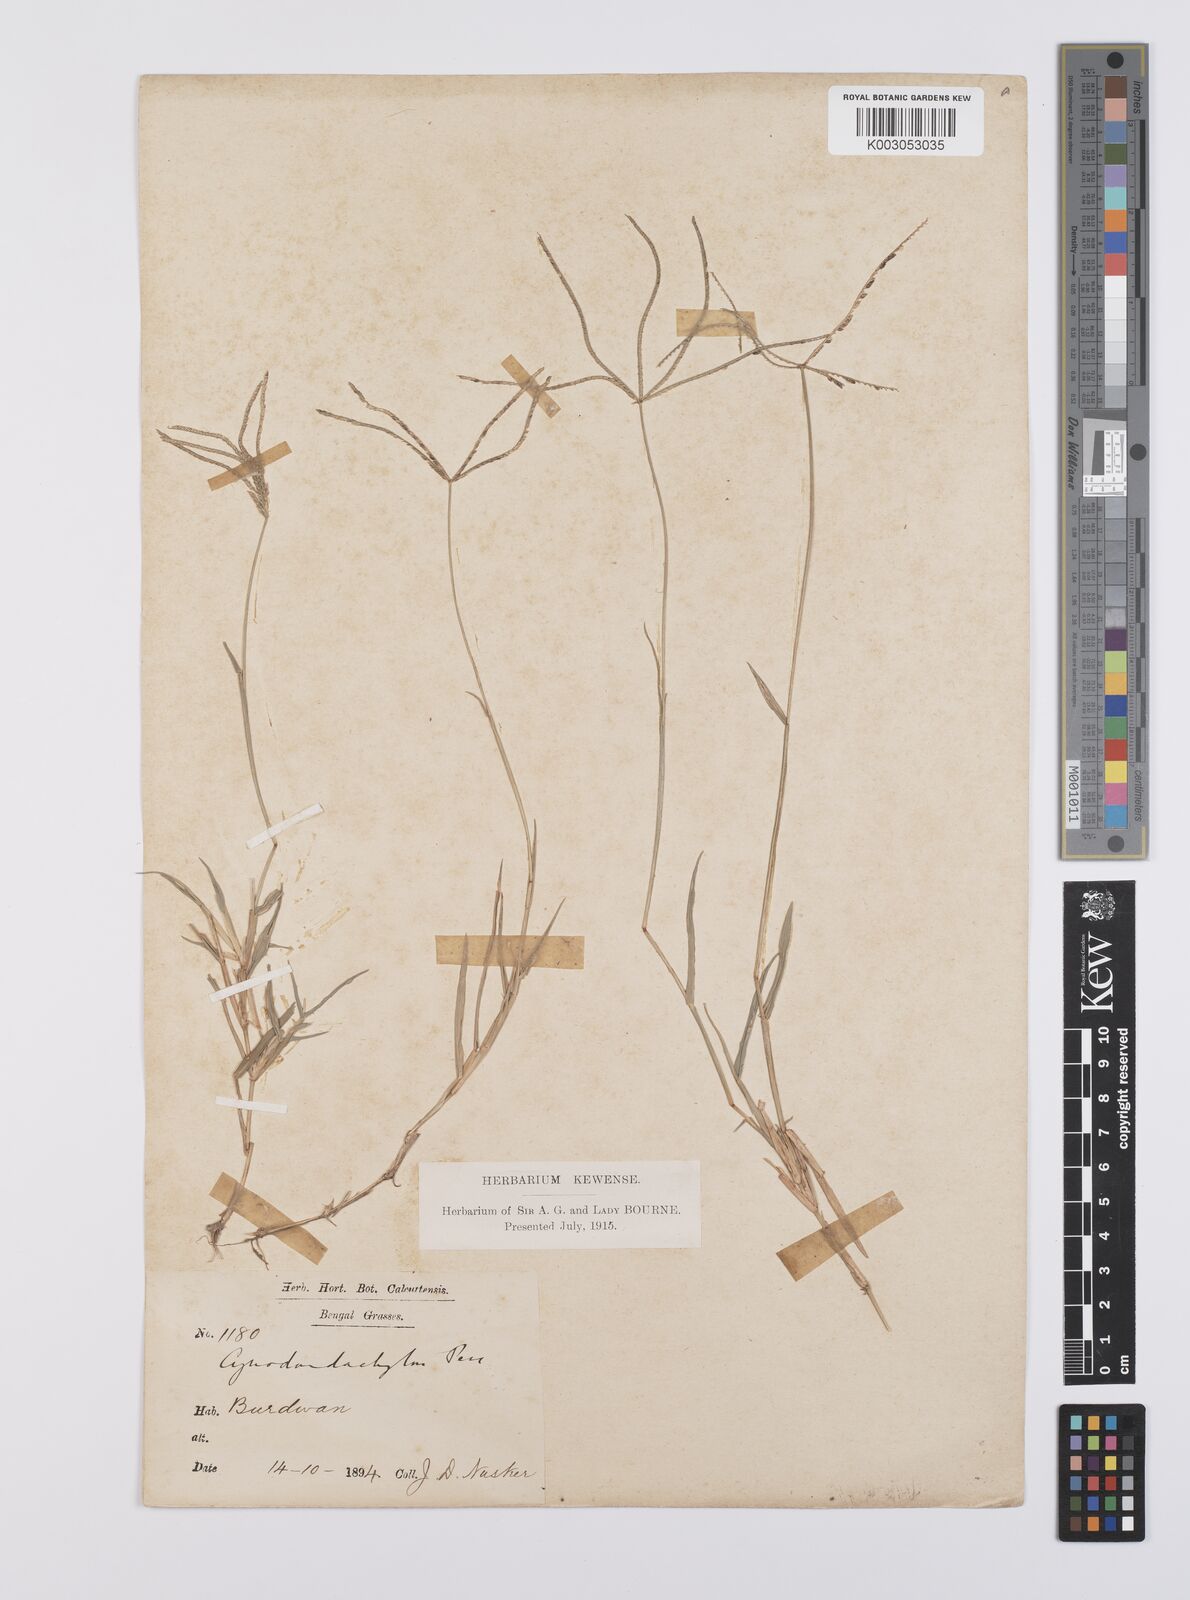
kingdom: Plantae
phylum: Tracheophyta
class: Liliopsida
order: Poales
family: Poaceae
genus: Cynodon
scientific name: Cynodon radiatus
